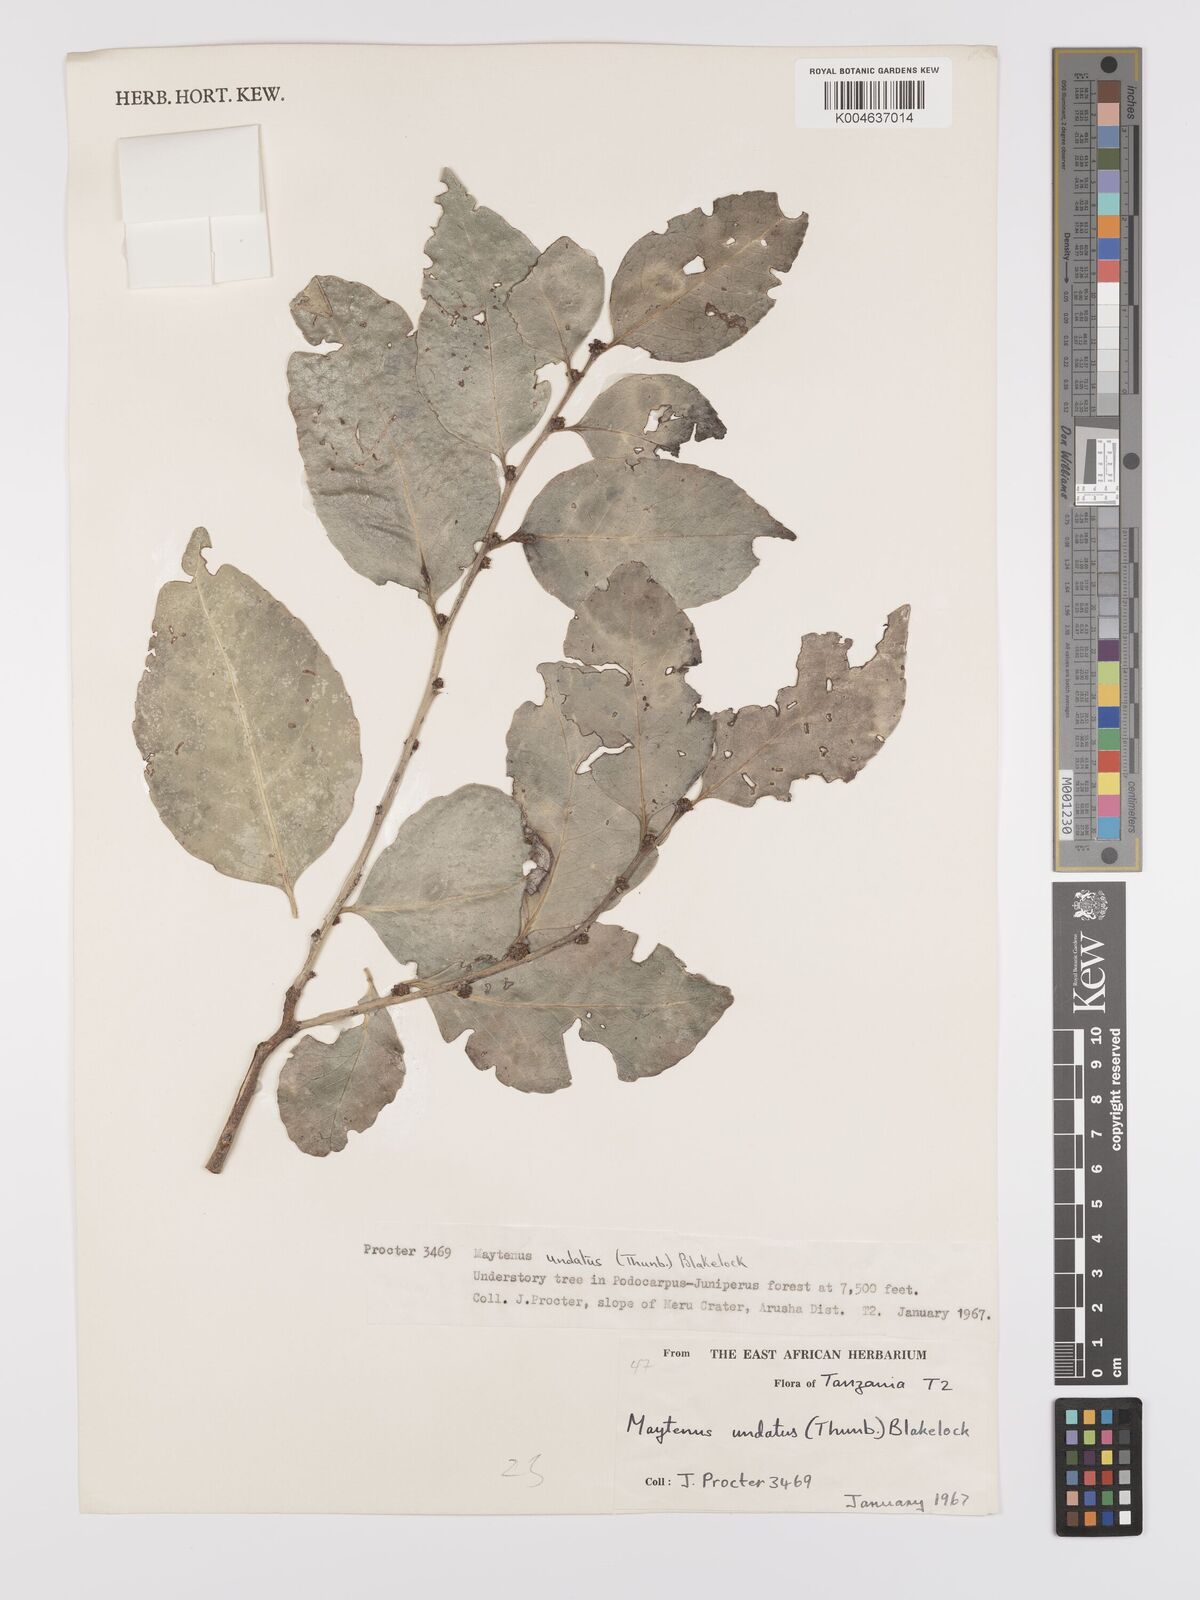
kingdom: Plantae
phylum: Tracheophyta
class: Magnoliopsida
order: Celastrales
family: Celastraceae
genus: Gymnosporia
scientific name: Gymnosporia undata
